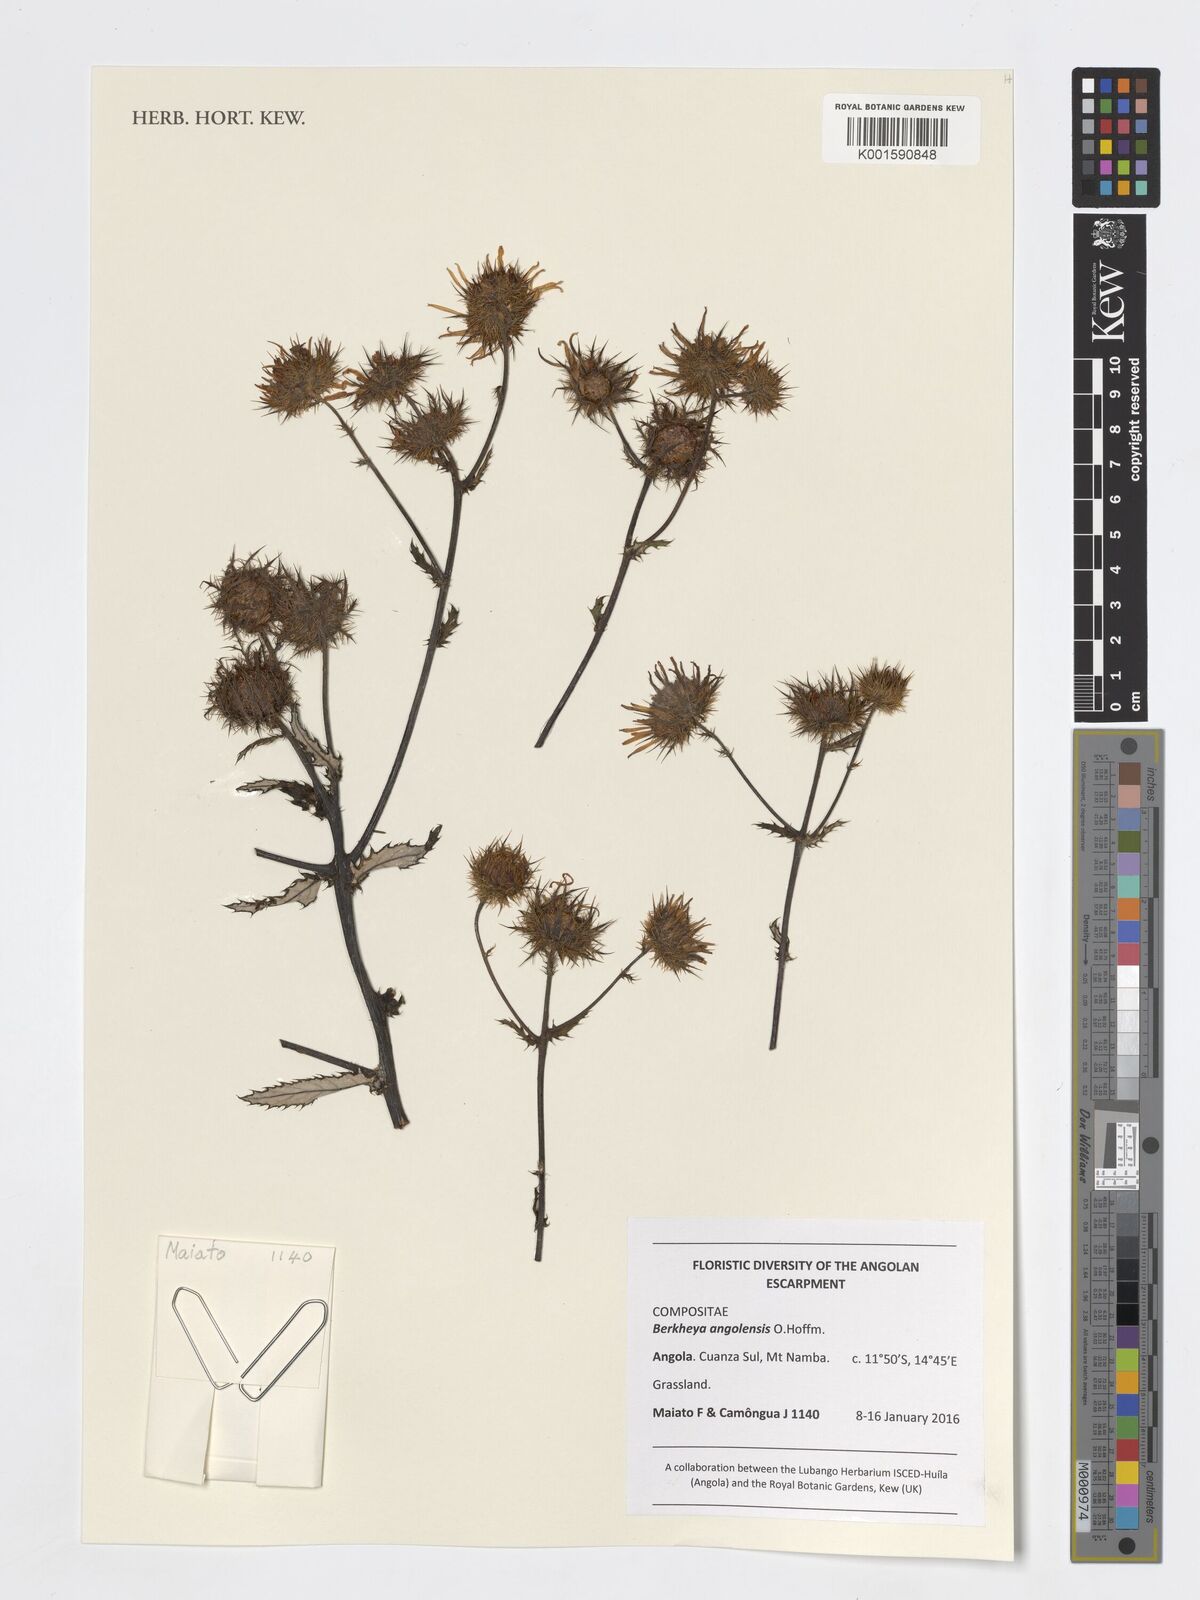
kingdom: Plantae
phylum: Tracheophyta
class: Magnoliopsida
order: Asterales
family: Asteraceae
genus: Berkheya
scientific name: Berkheya angolensis
